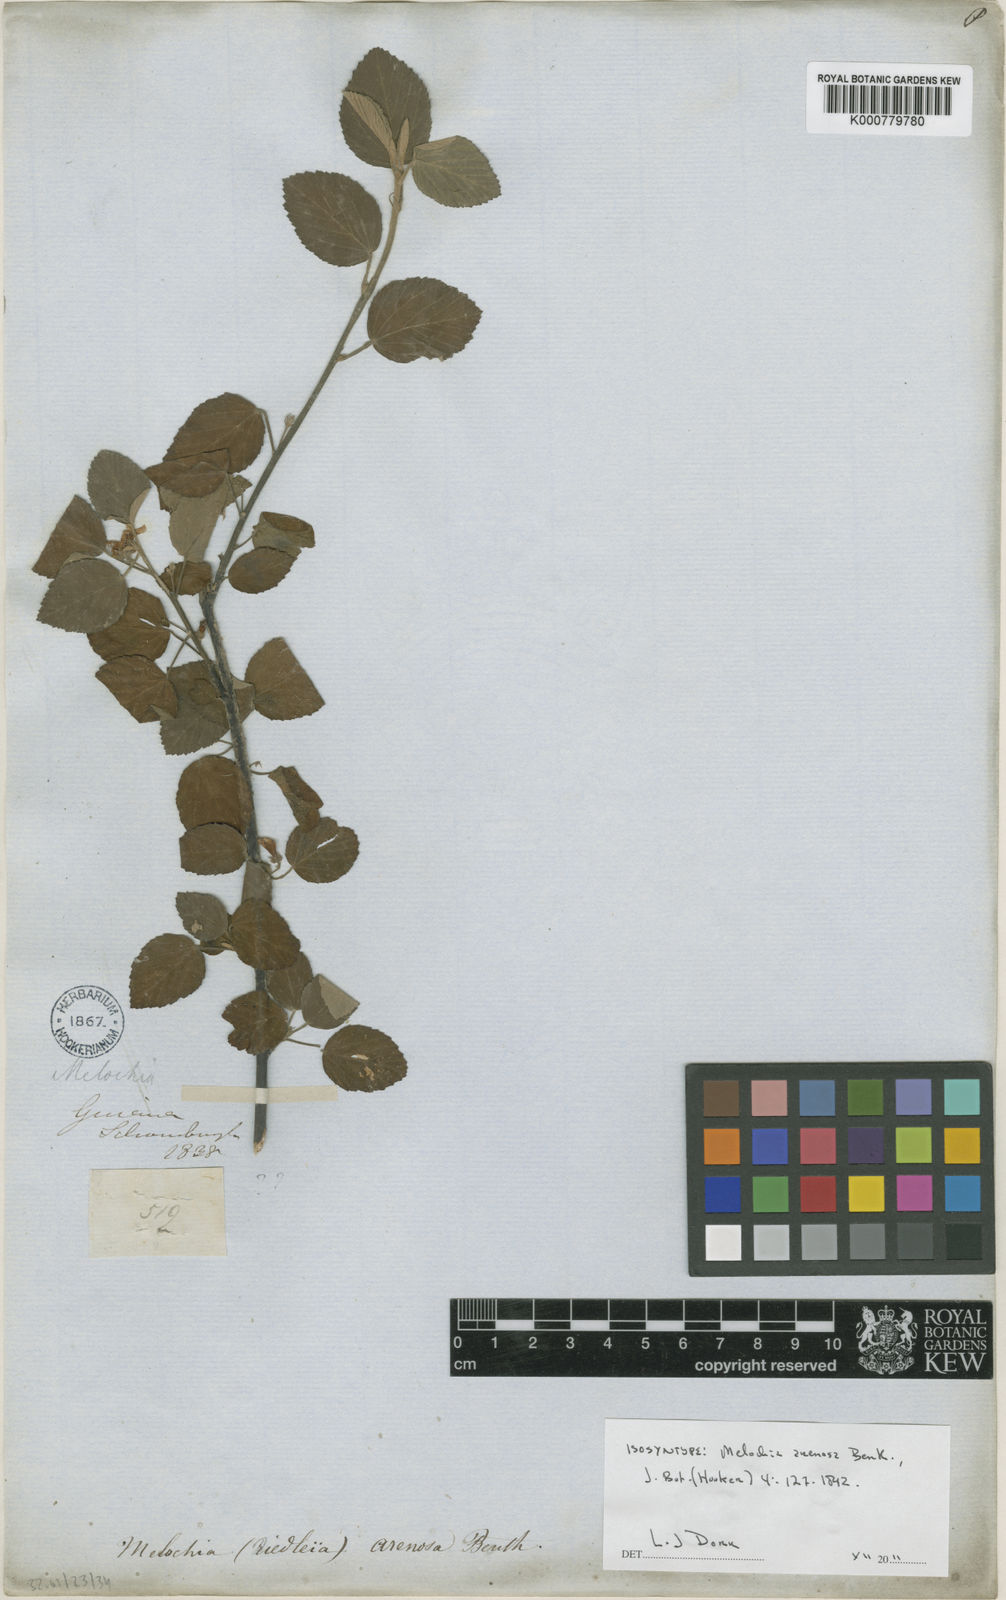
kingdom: Plantae
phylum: Tracheophyta
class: Magnoliopsida
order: Malvales
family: Malvaceae
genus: Melochia
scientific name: Melochia arenosa
